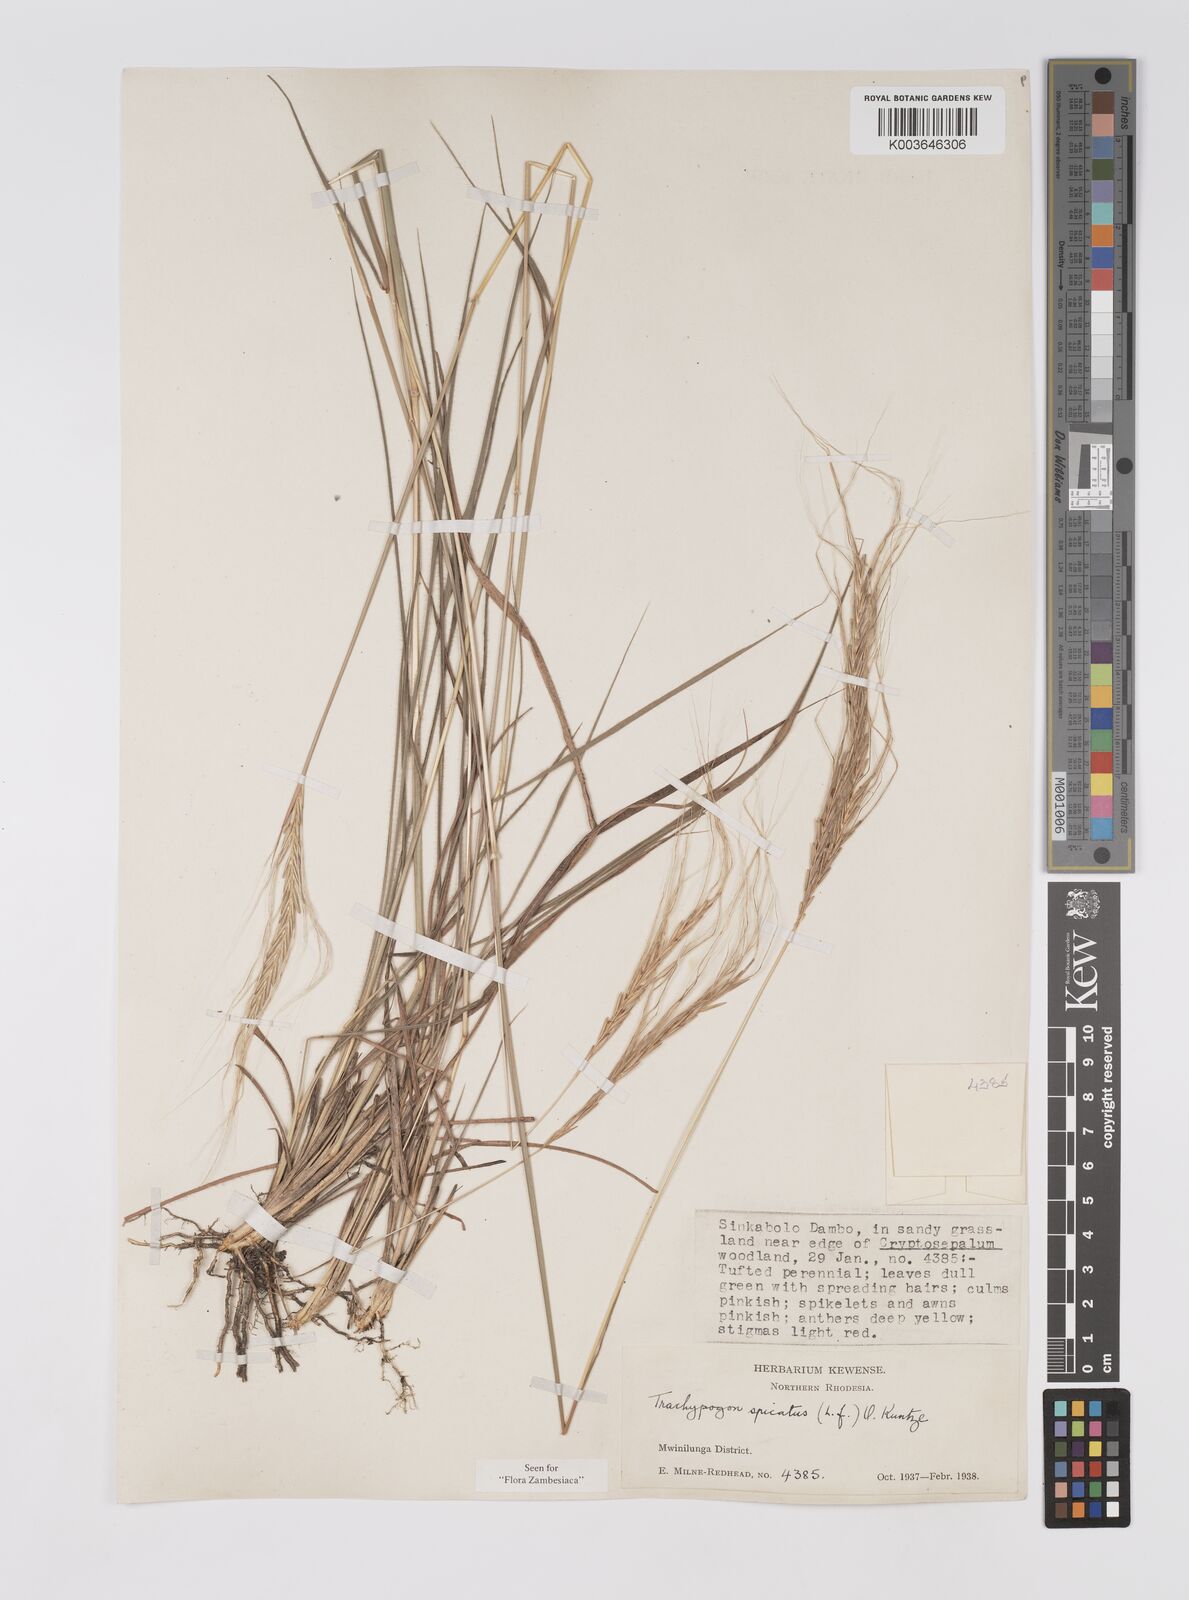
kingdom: Plantae
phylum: Tracheophyta
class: Liliopsida
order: Poales
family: Poaceae
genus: Trachypogon
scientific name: Trachypogon spicatus
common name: Crinkle-awn
